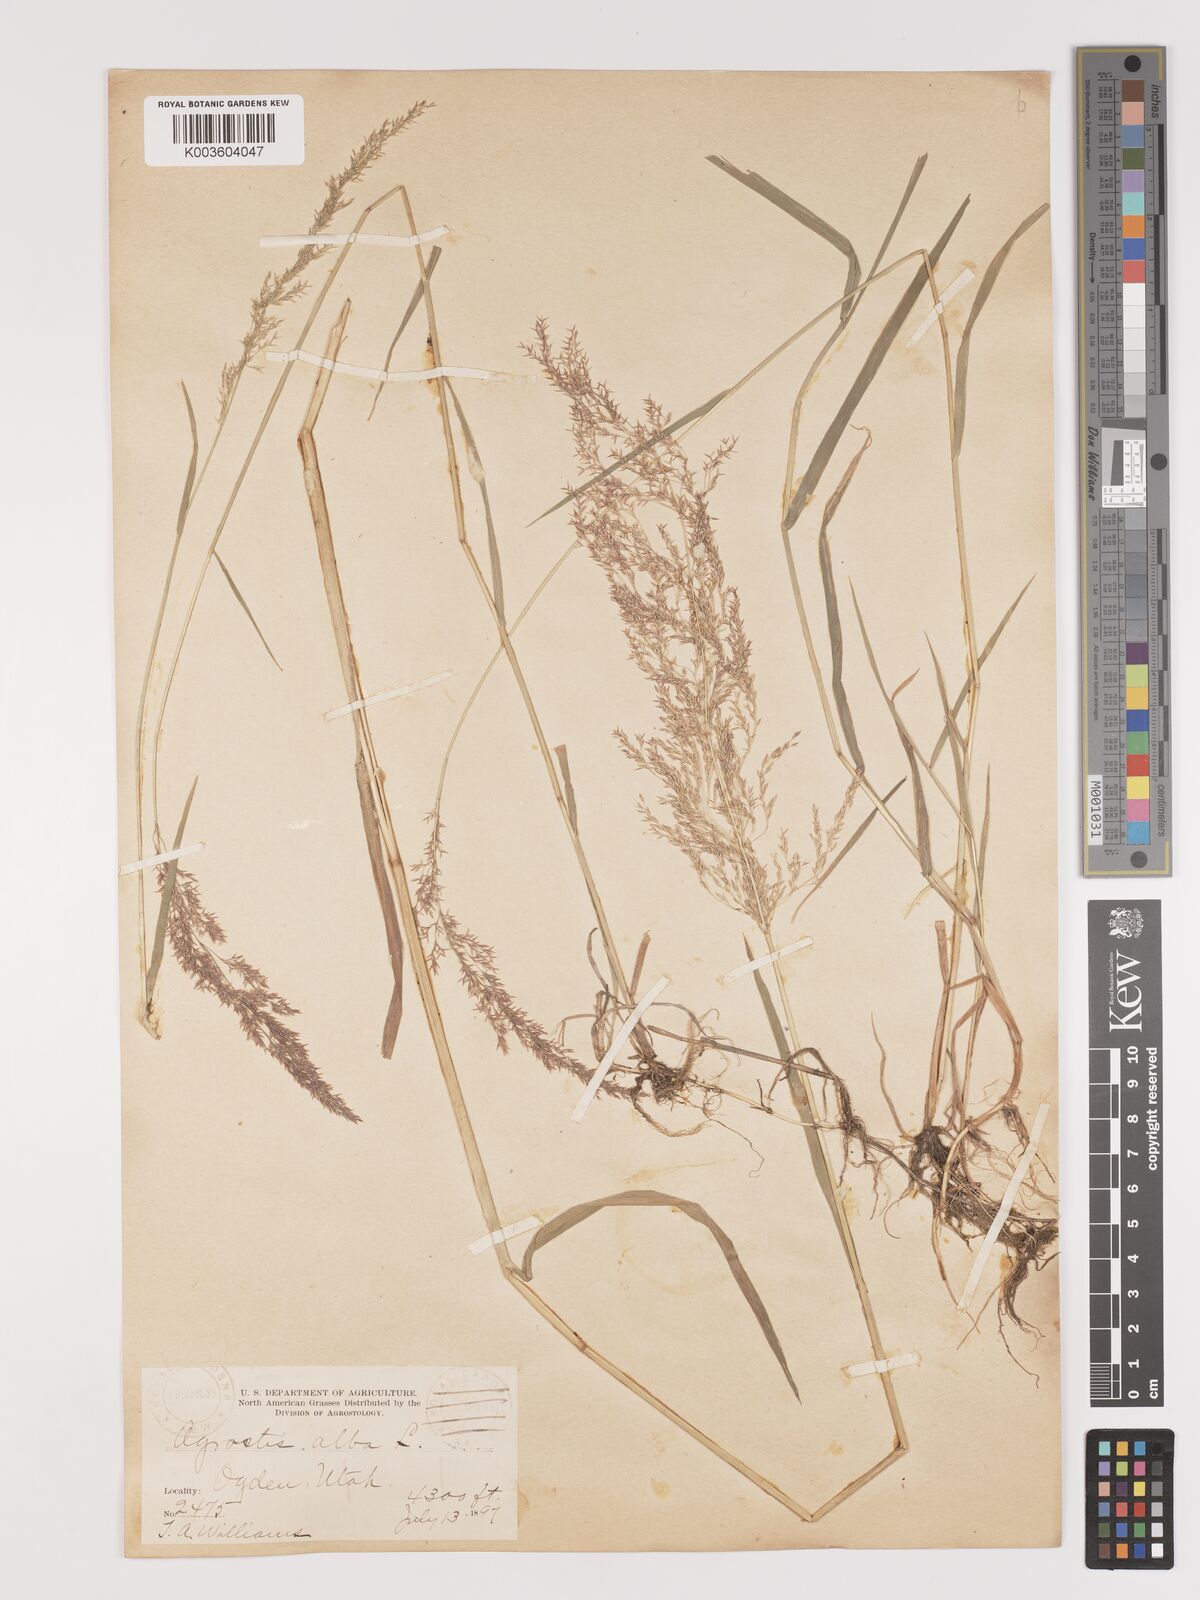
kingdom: Plantae
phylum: Tracheophyta
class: Liliopsida
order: Poales
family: Poaceae
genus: Agrostis
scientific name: Agrostis gigantea
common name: Black bent
